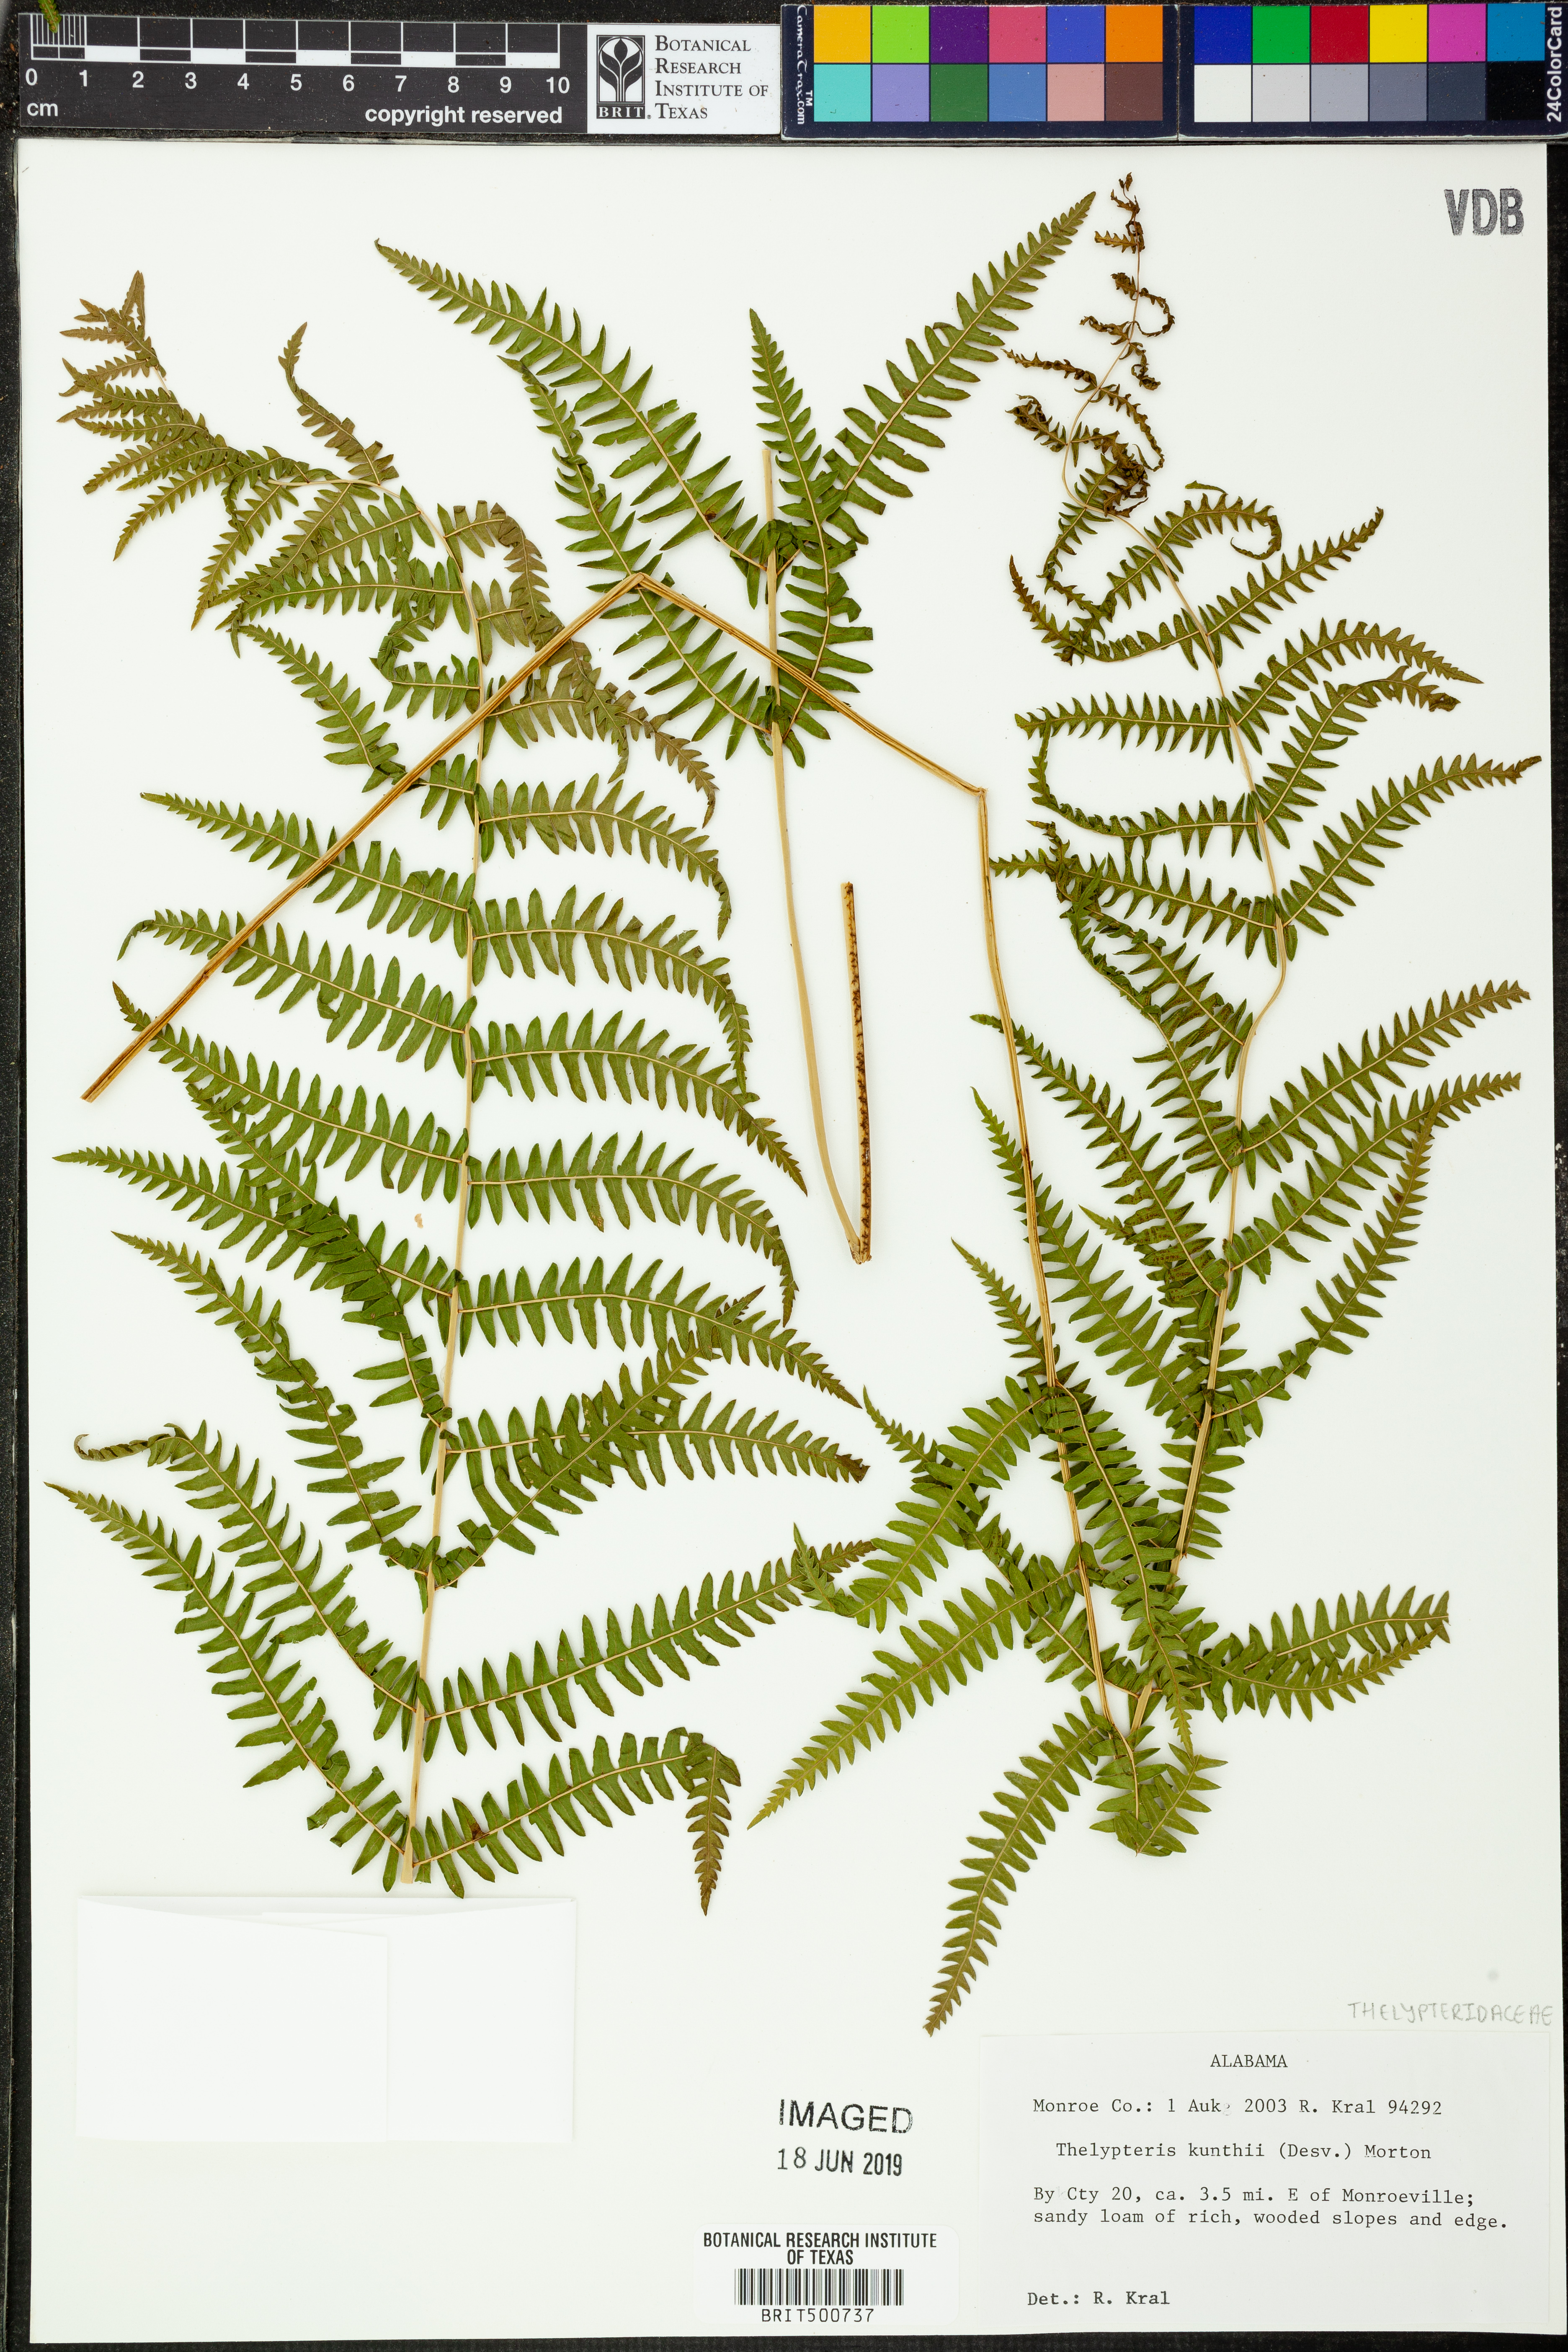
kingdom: Plantae
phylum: Tracheophyta
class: Polypodiopsida
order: Polypodiales
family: Thelypteridaceae
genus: Pelazoneuron
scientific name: Pelazoneuron kunthii
